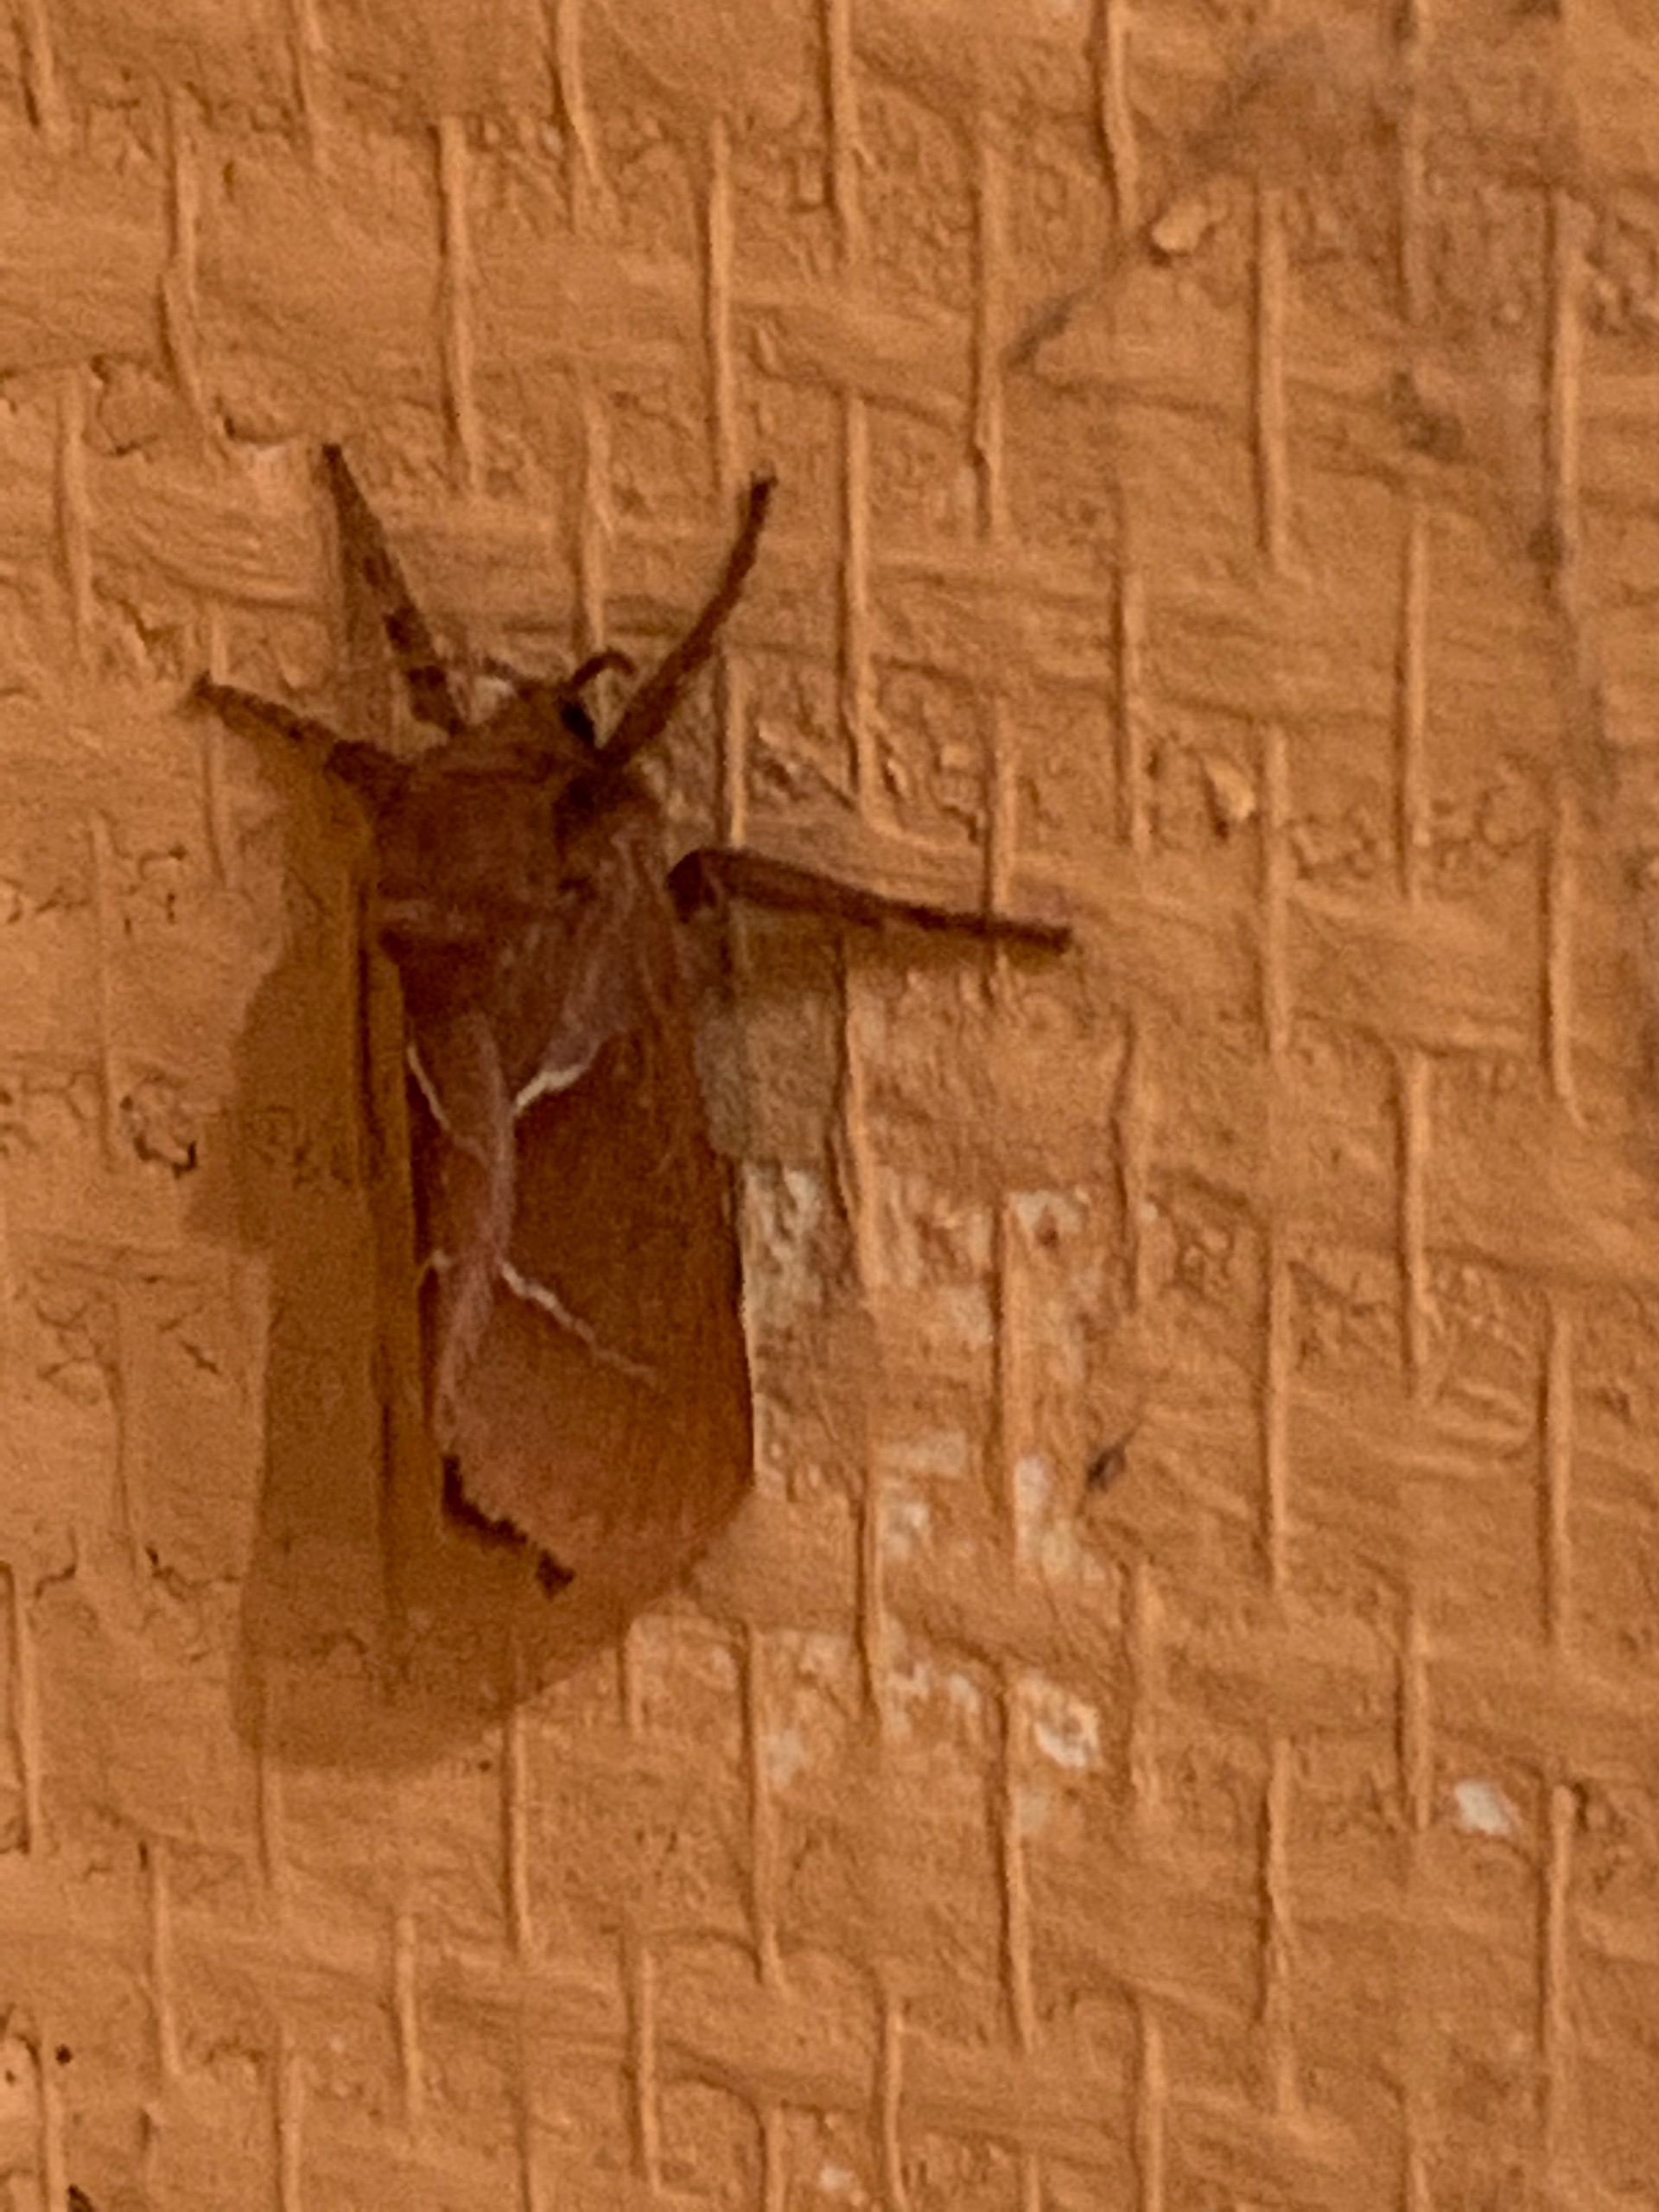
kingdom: Animalia
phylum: Arthropoda
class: Insecta
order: Lepidoptera
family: Hepialidae
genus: Triodia
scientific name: Triodia sylvina
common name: Skræpperodæder
